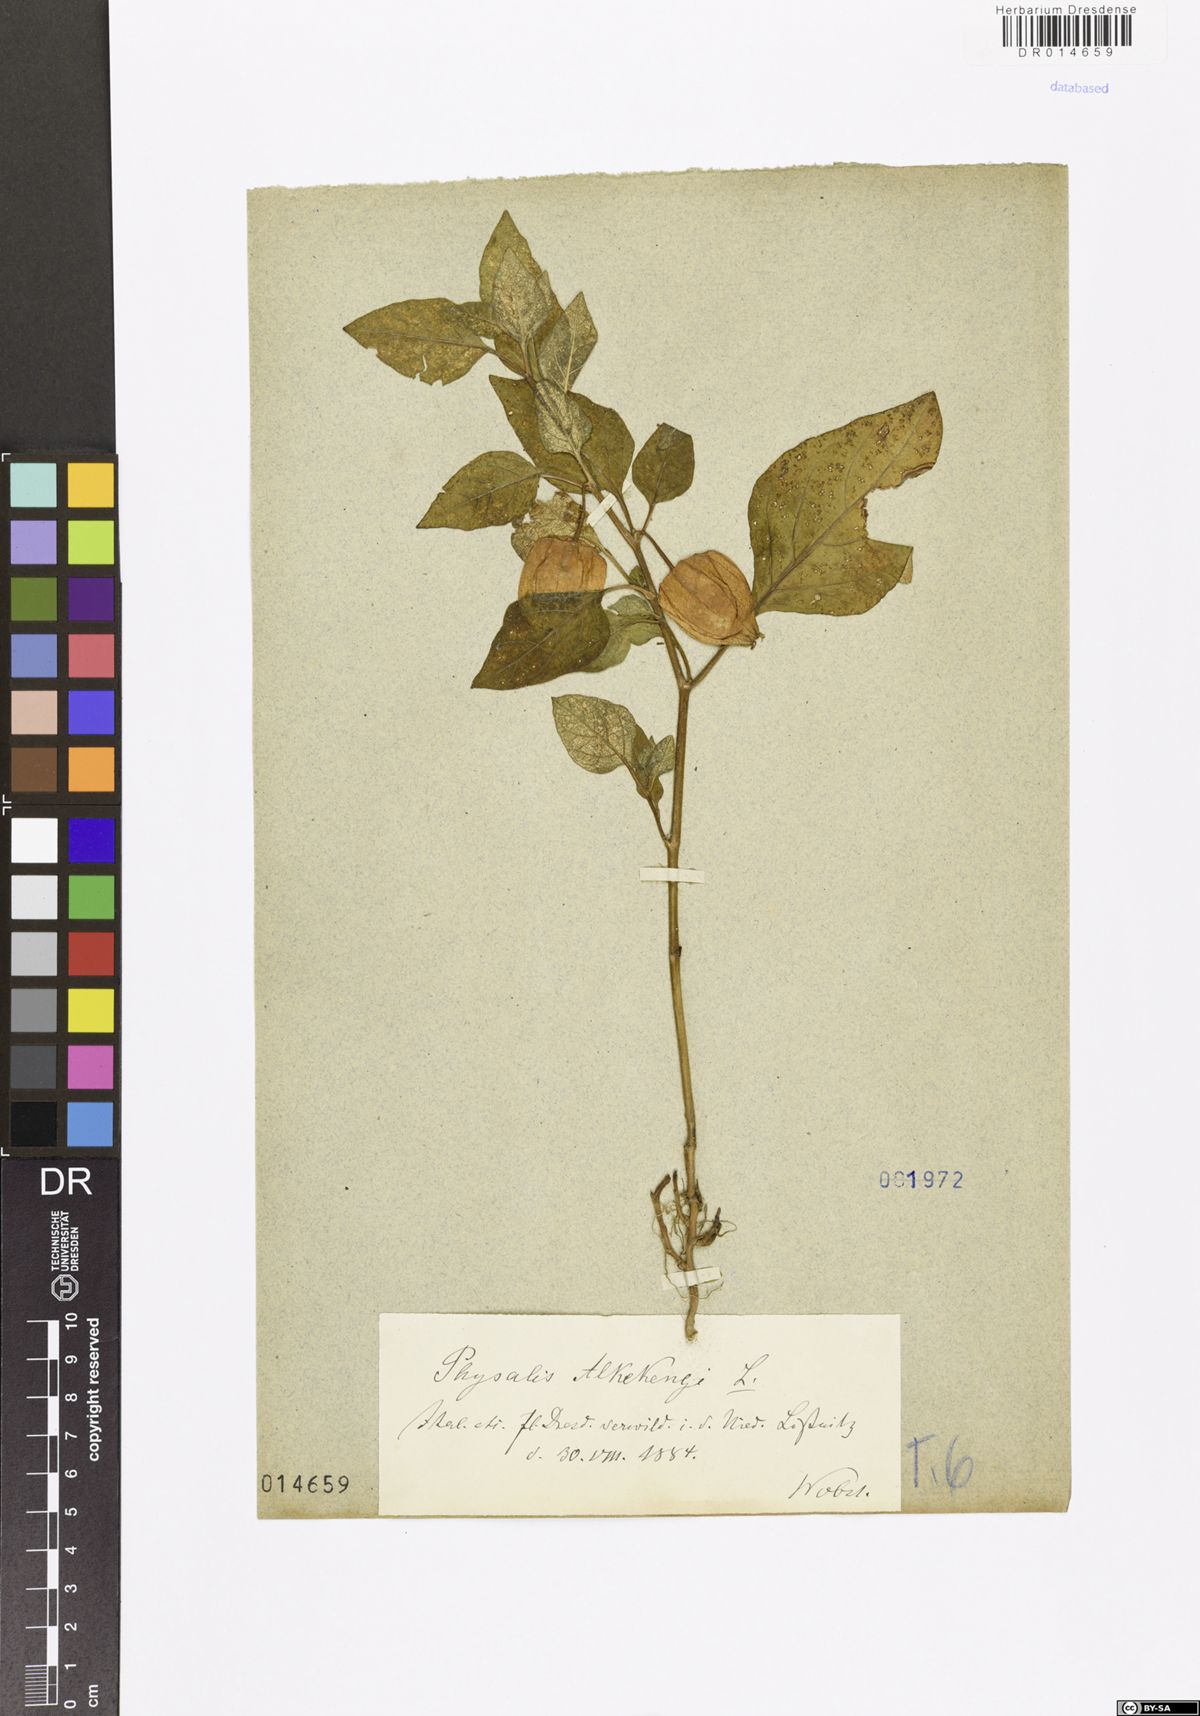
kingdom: Plantae
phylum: Tracheophyta
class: Magnoliopsida
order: Solanales
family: Solanaceae
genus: Alkekengi
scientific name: Alkekengi officinarum
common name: Japanese-lantern
